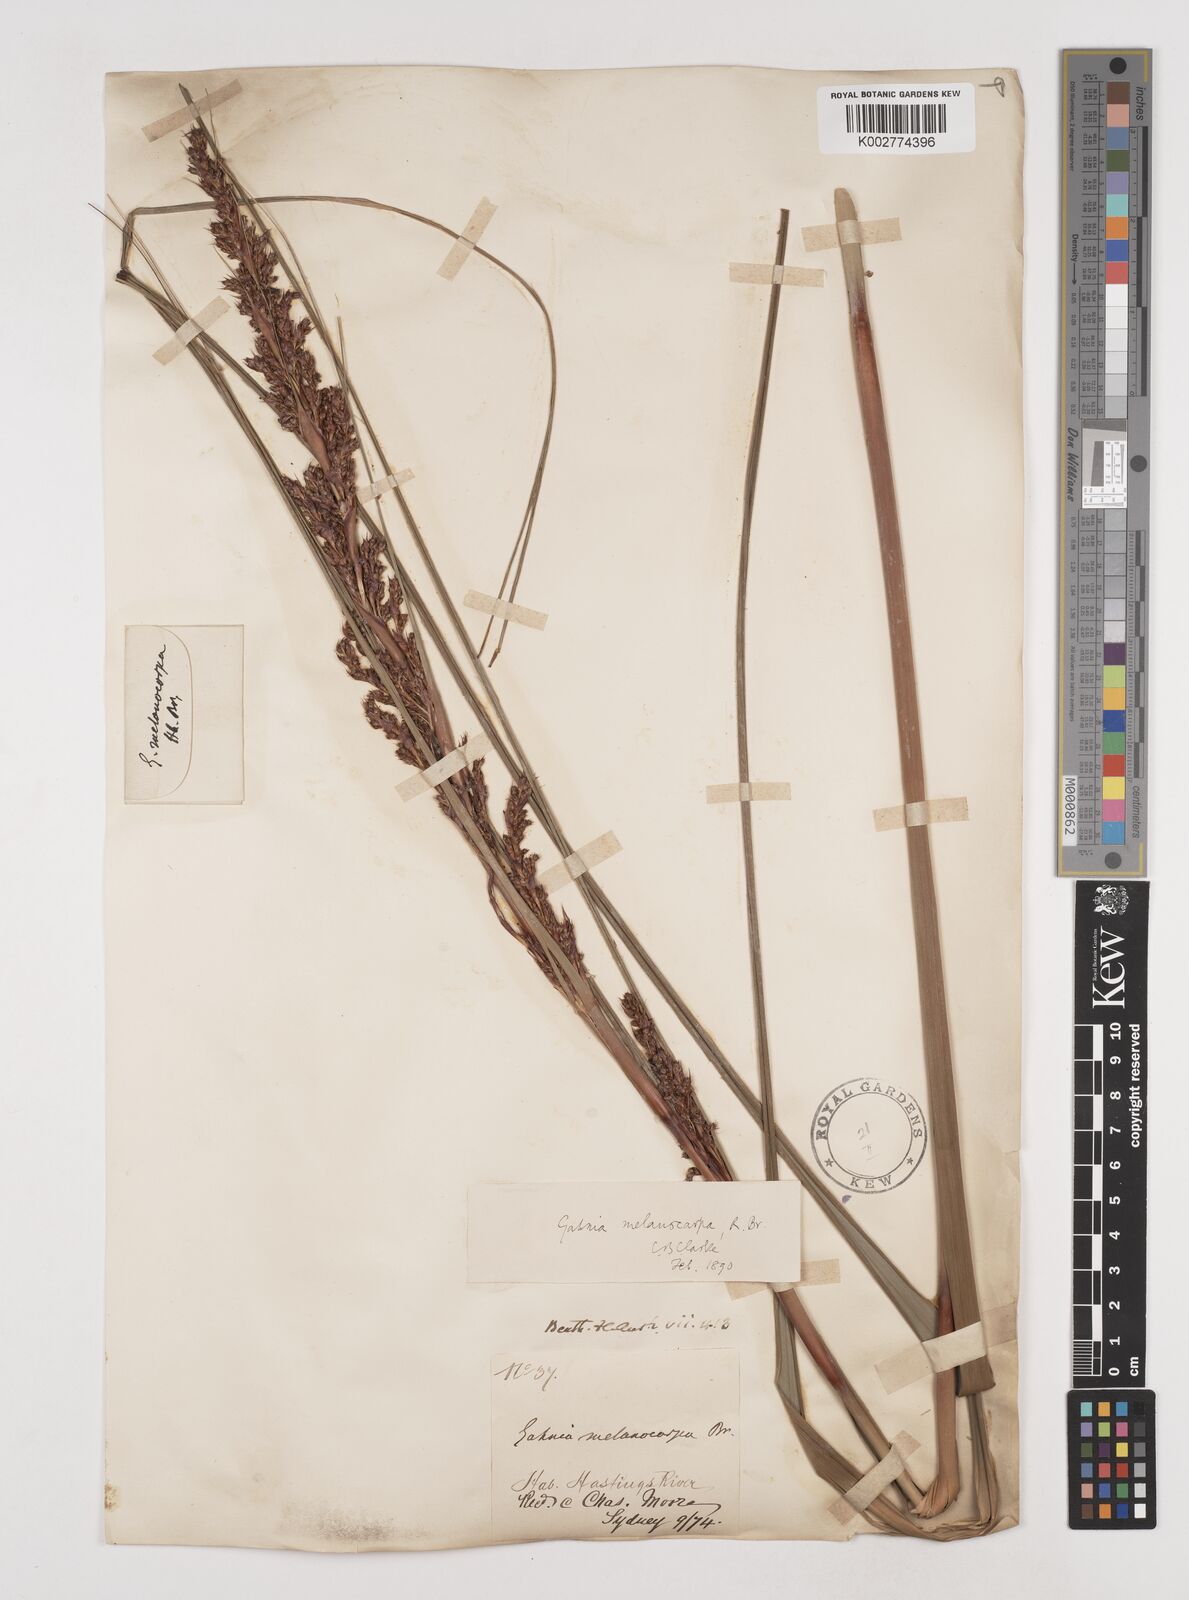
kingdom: Plantae
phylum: Tracheophyta
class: Liliopsida
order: Poales
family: Cyperaceae
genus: Gahnia
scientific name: Gahnia melanocarpa
